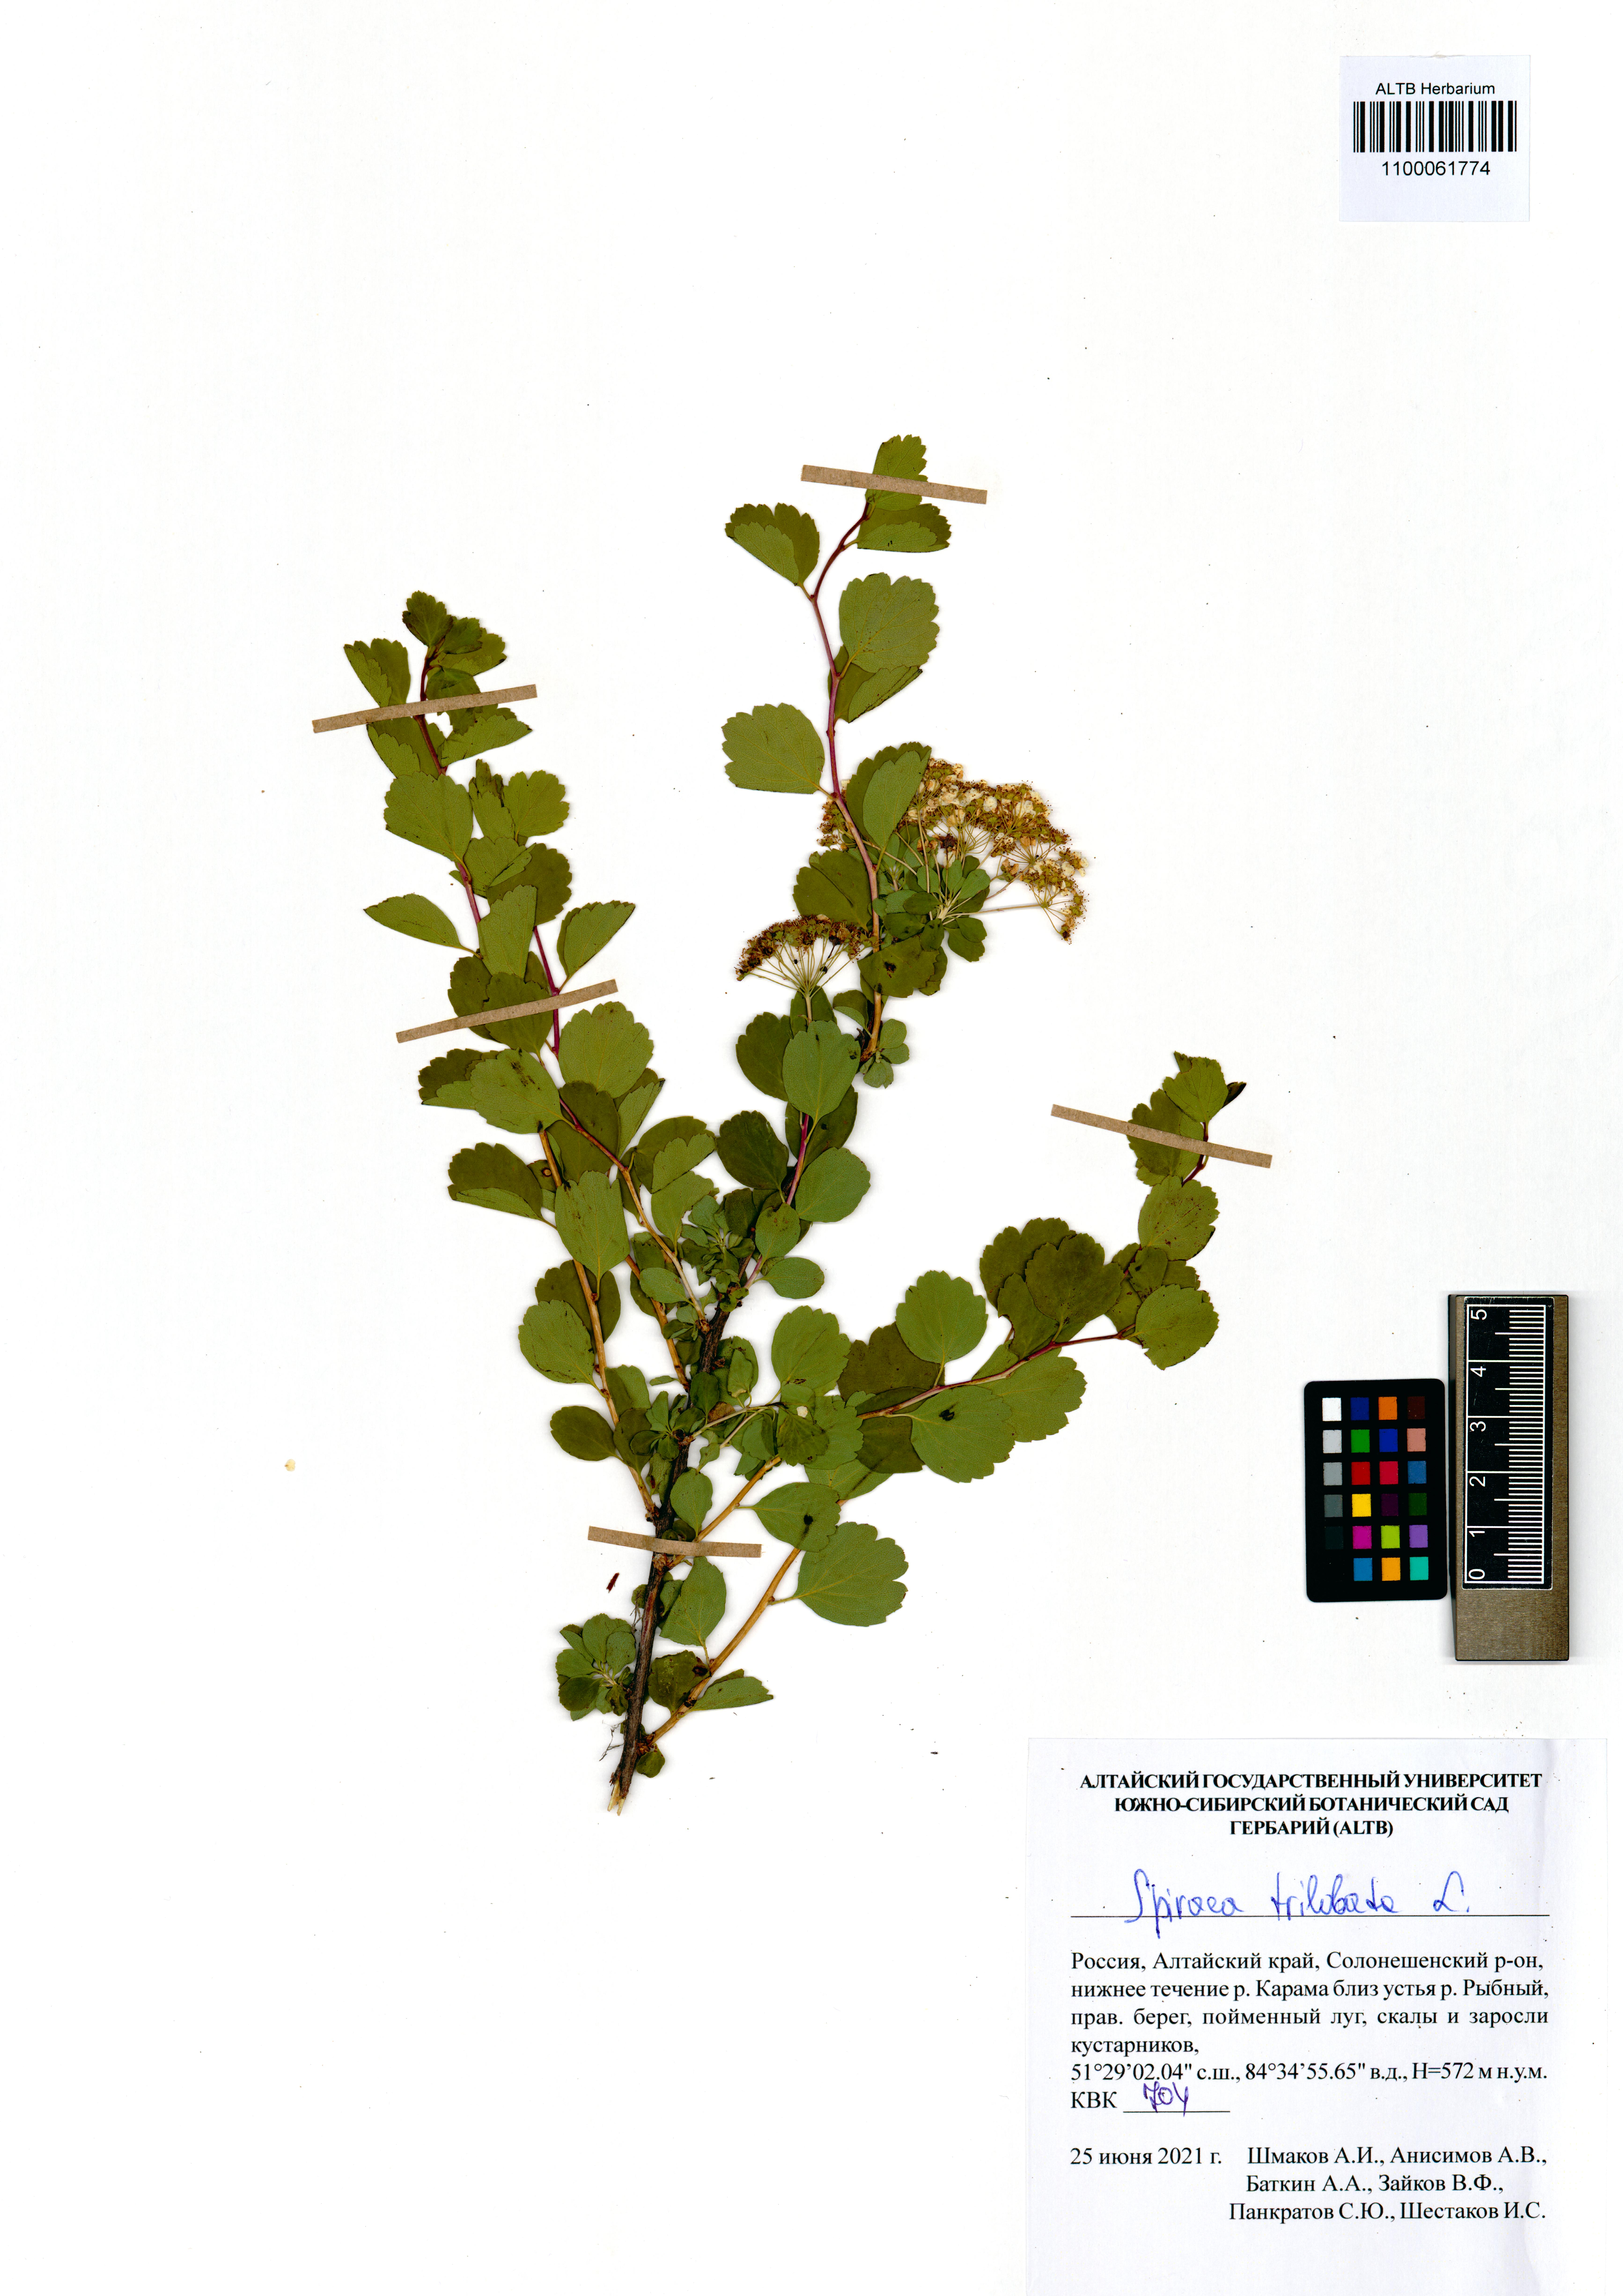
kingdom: Plantae
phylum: Tracheophyta
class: Magnoliopsida
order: Rosales
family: Rosaceae
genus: Spiraea
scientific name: Spiraea trilobata
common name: Asian meadowsweet
